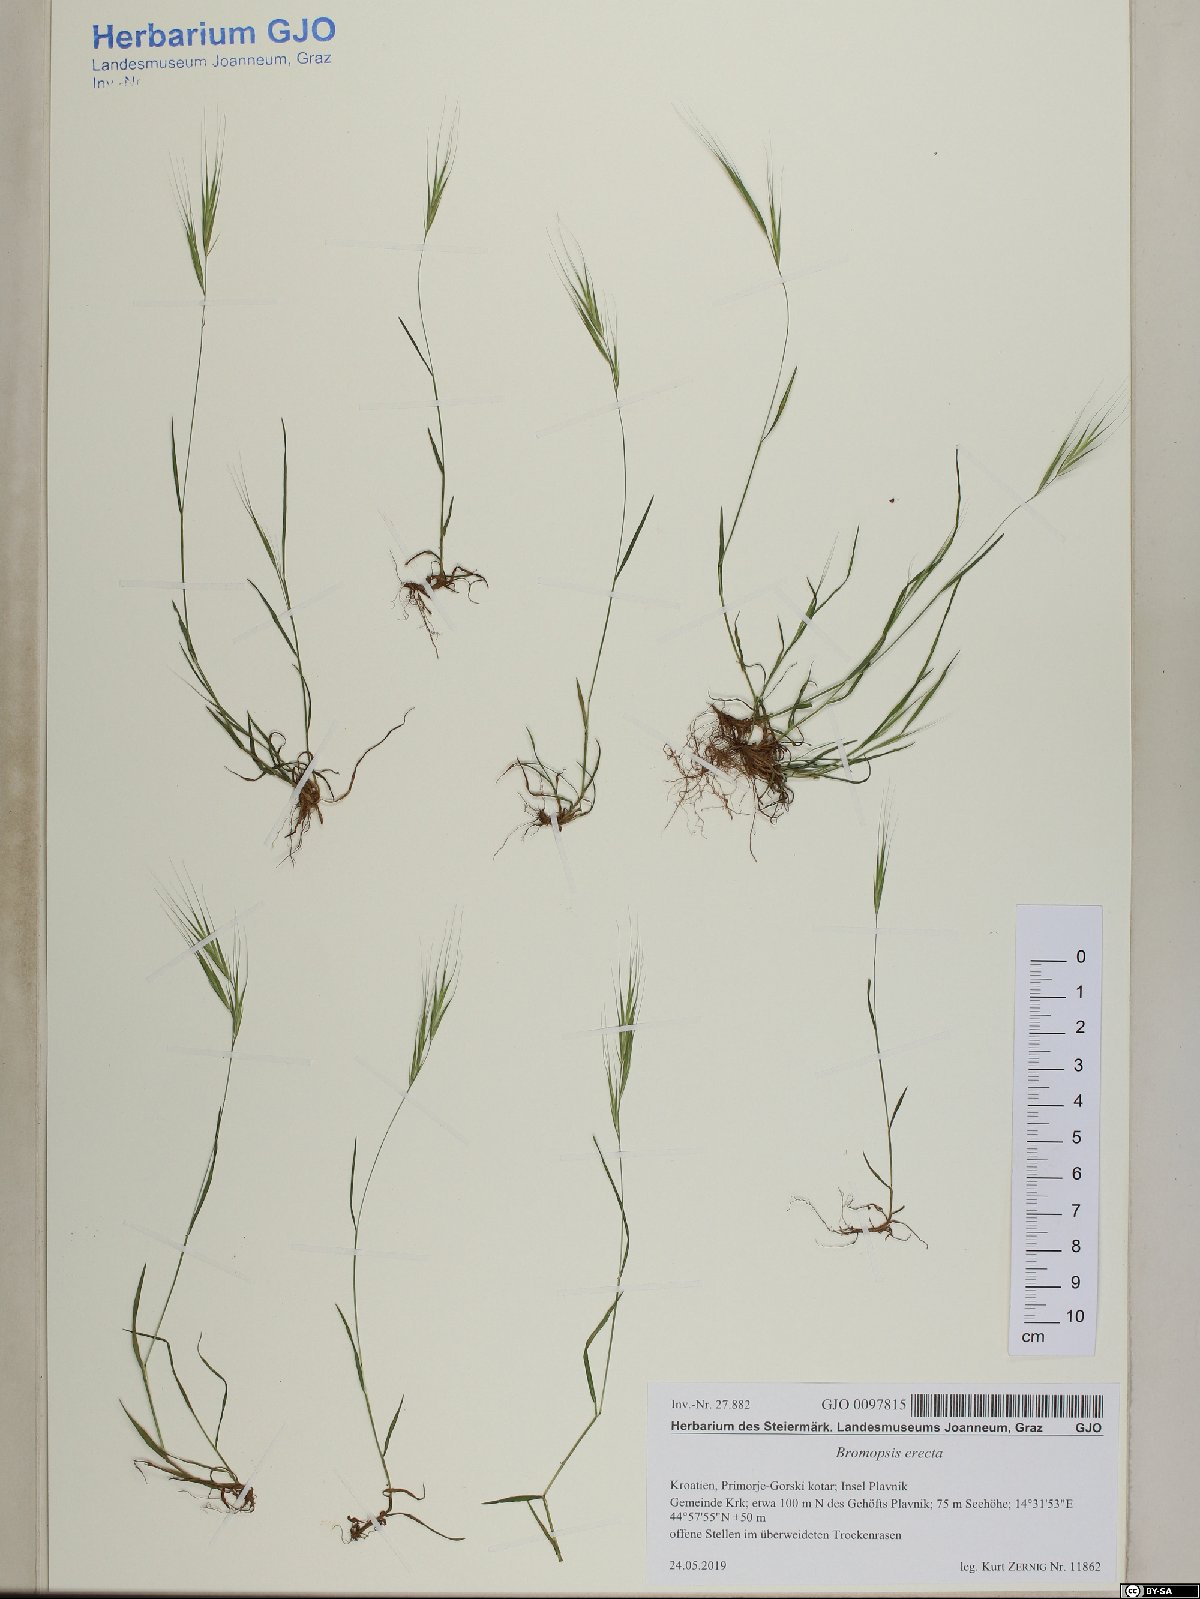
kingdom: Plantae
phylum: Tracheophyta
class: Liliopsida
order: Poales
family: Poaceae
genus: Bromus
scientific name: Bromus erectus
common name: Erect brome
